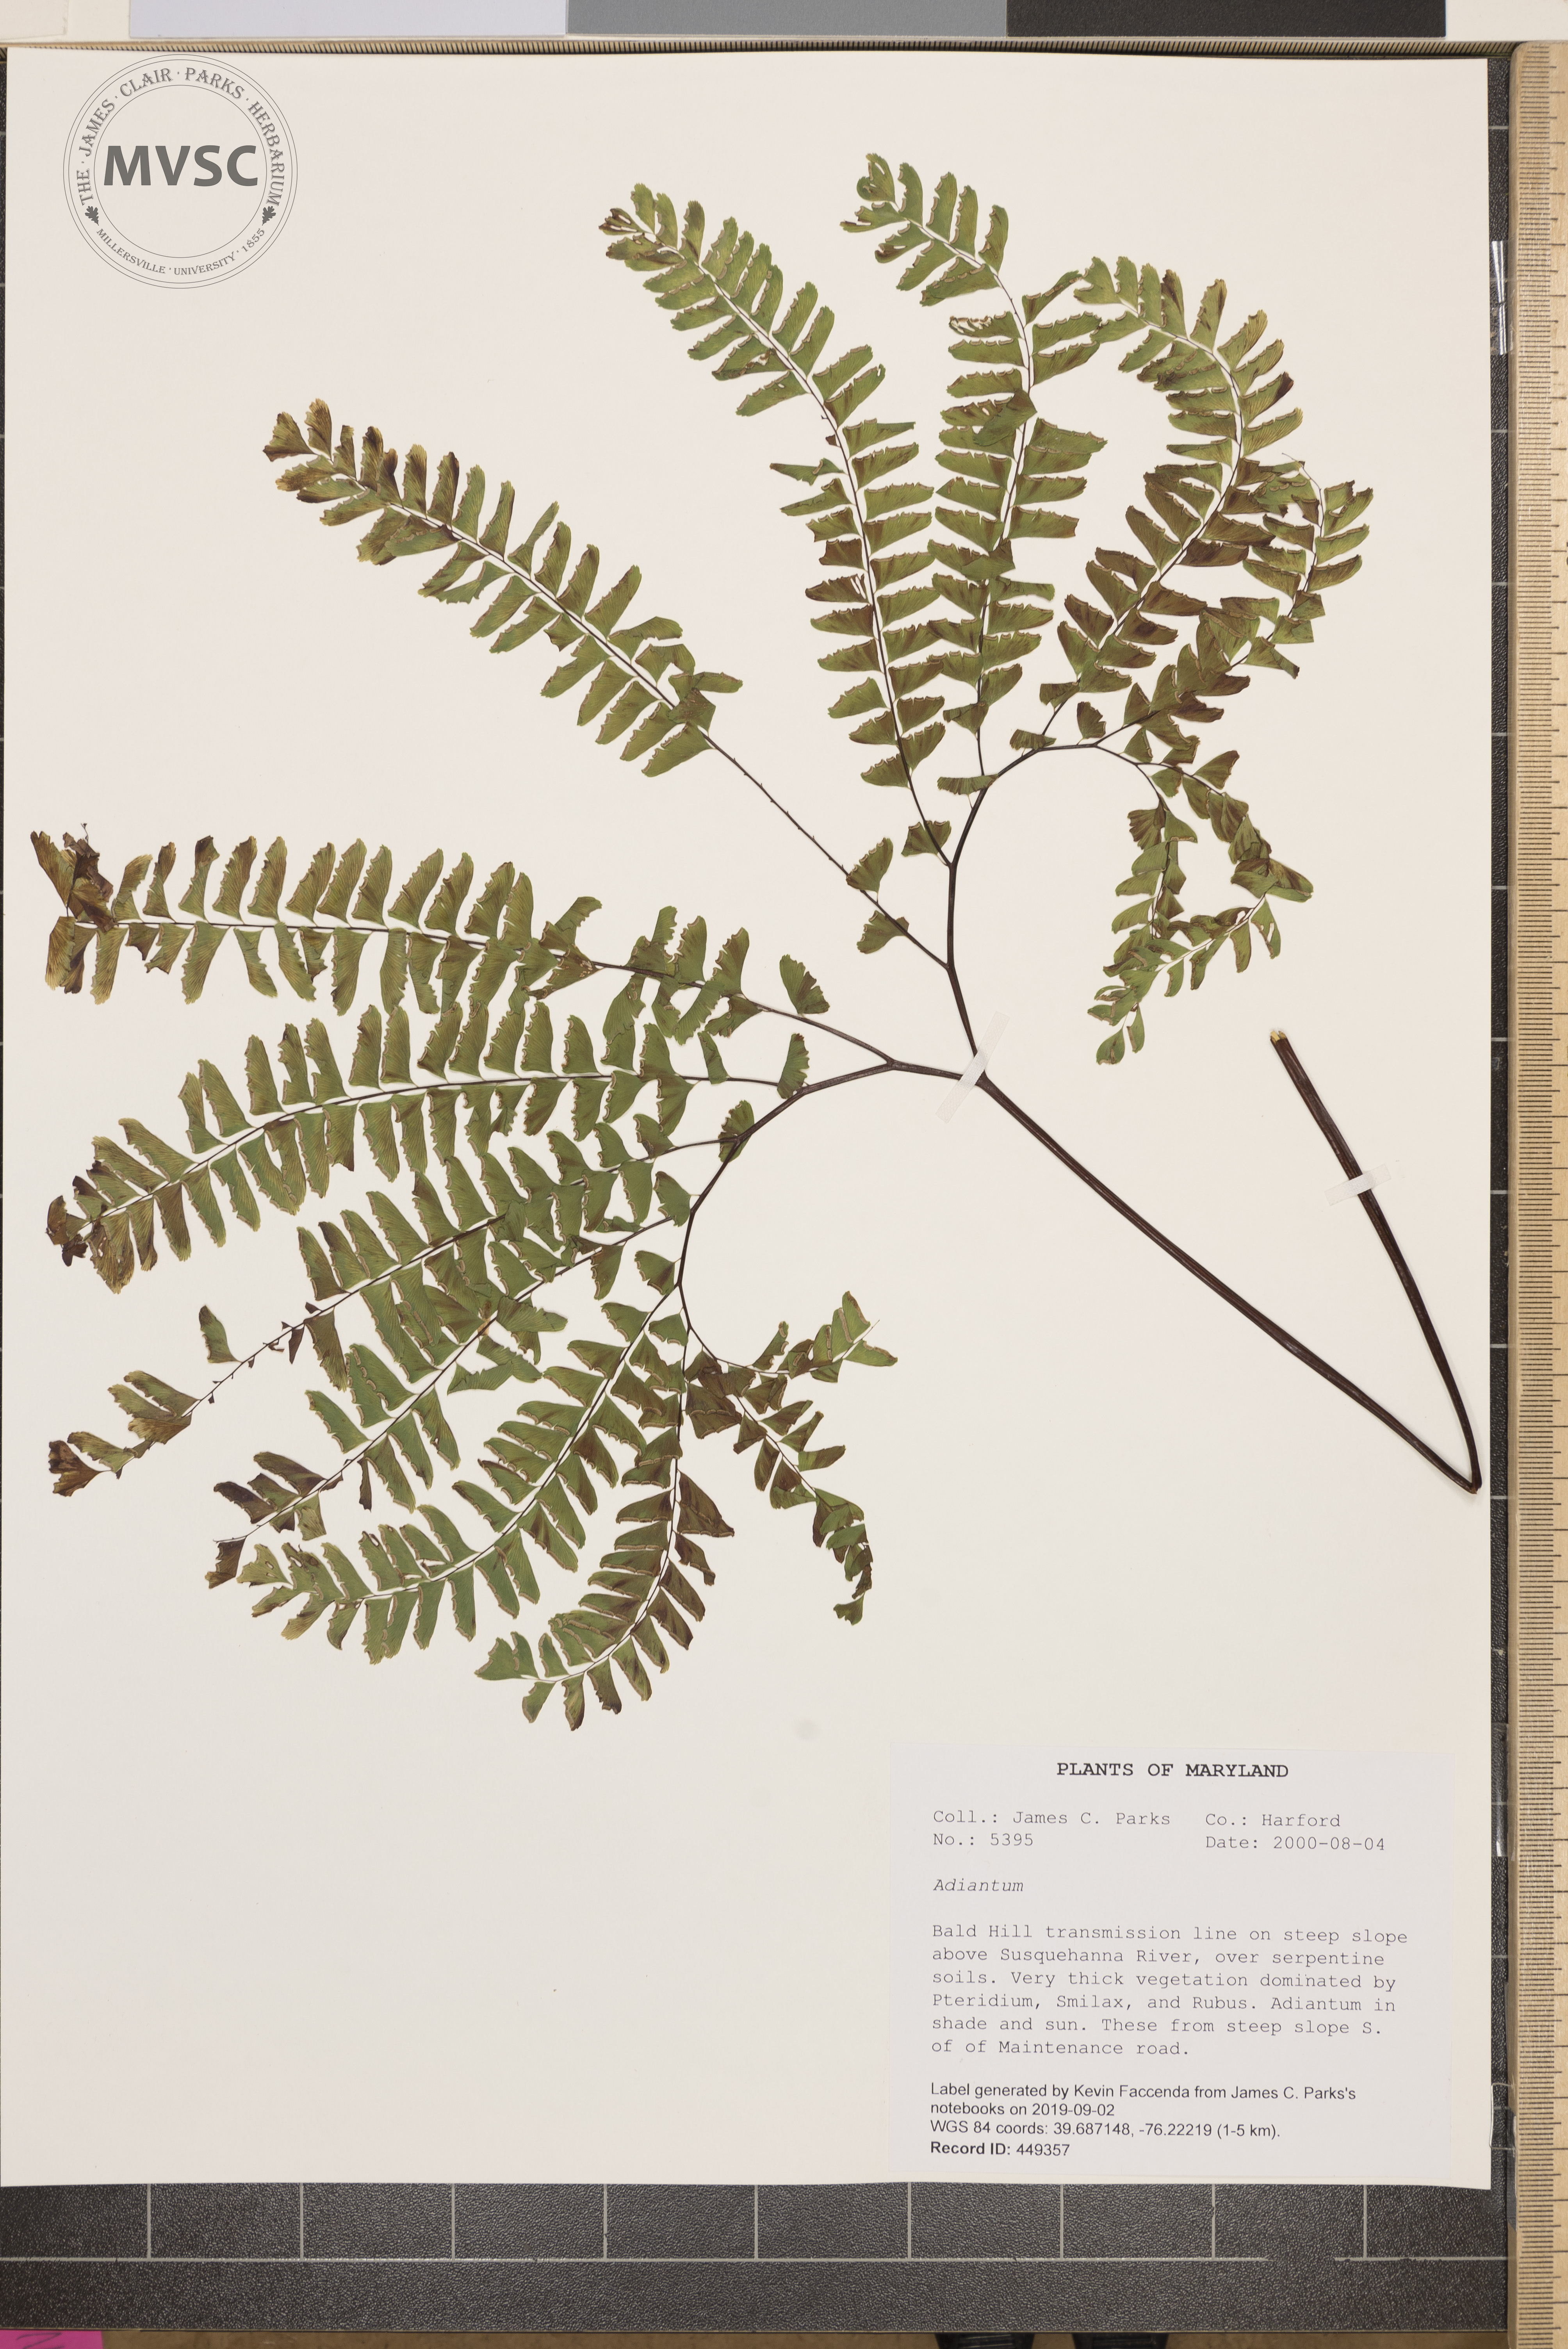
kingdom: Plantae
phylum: Tracheophyta
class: Polypodiopsida
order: Polypodiales
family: Pteridaceae
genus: Adiantum
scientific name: Adiantum
